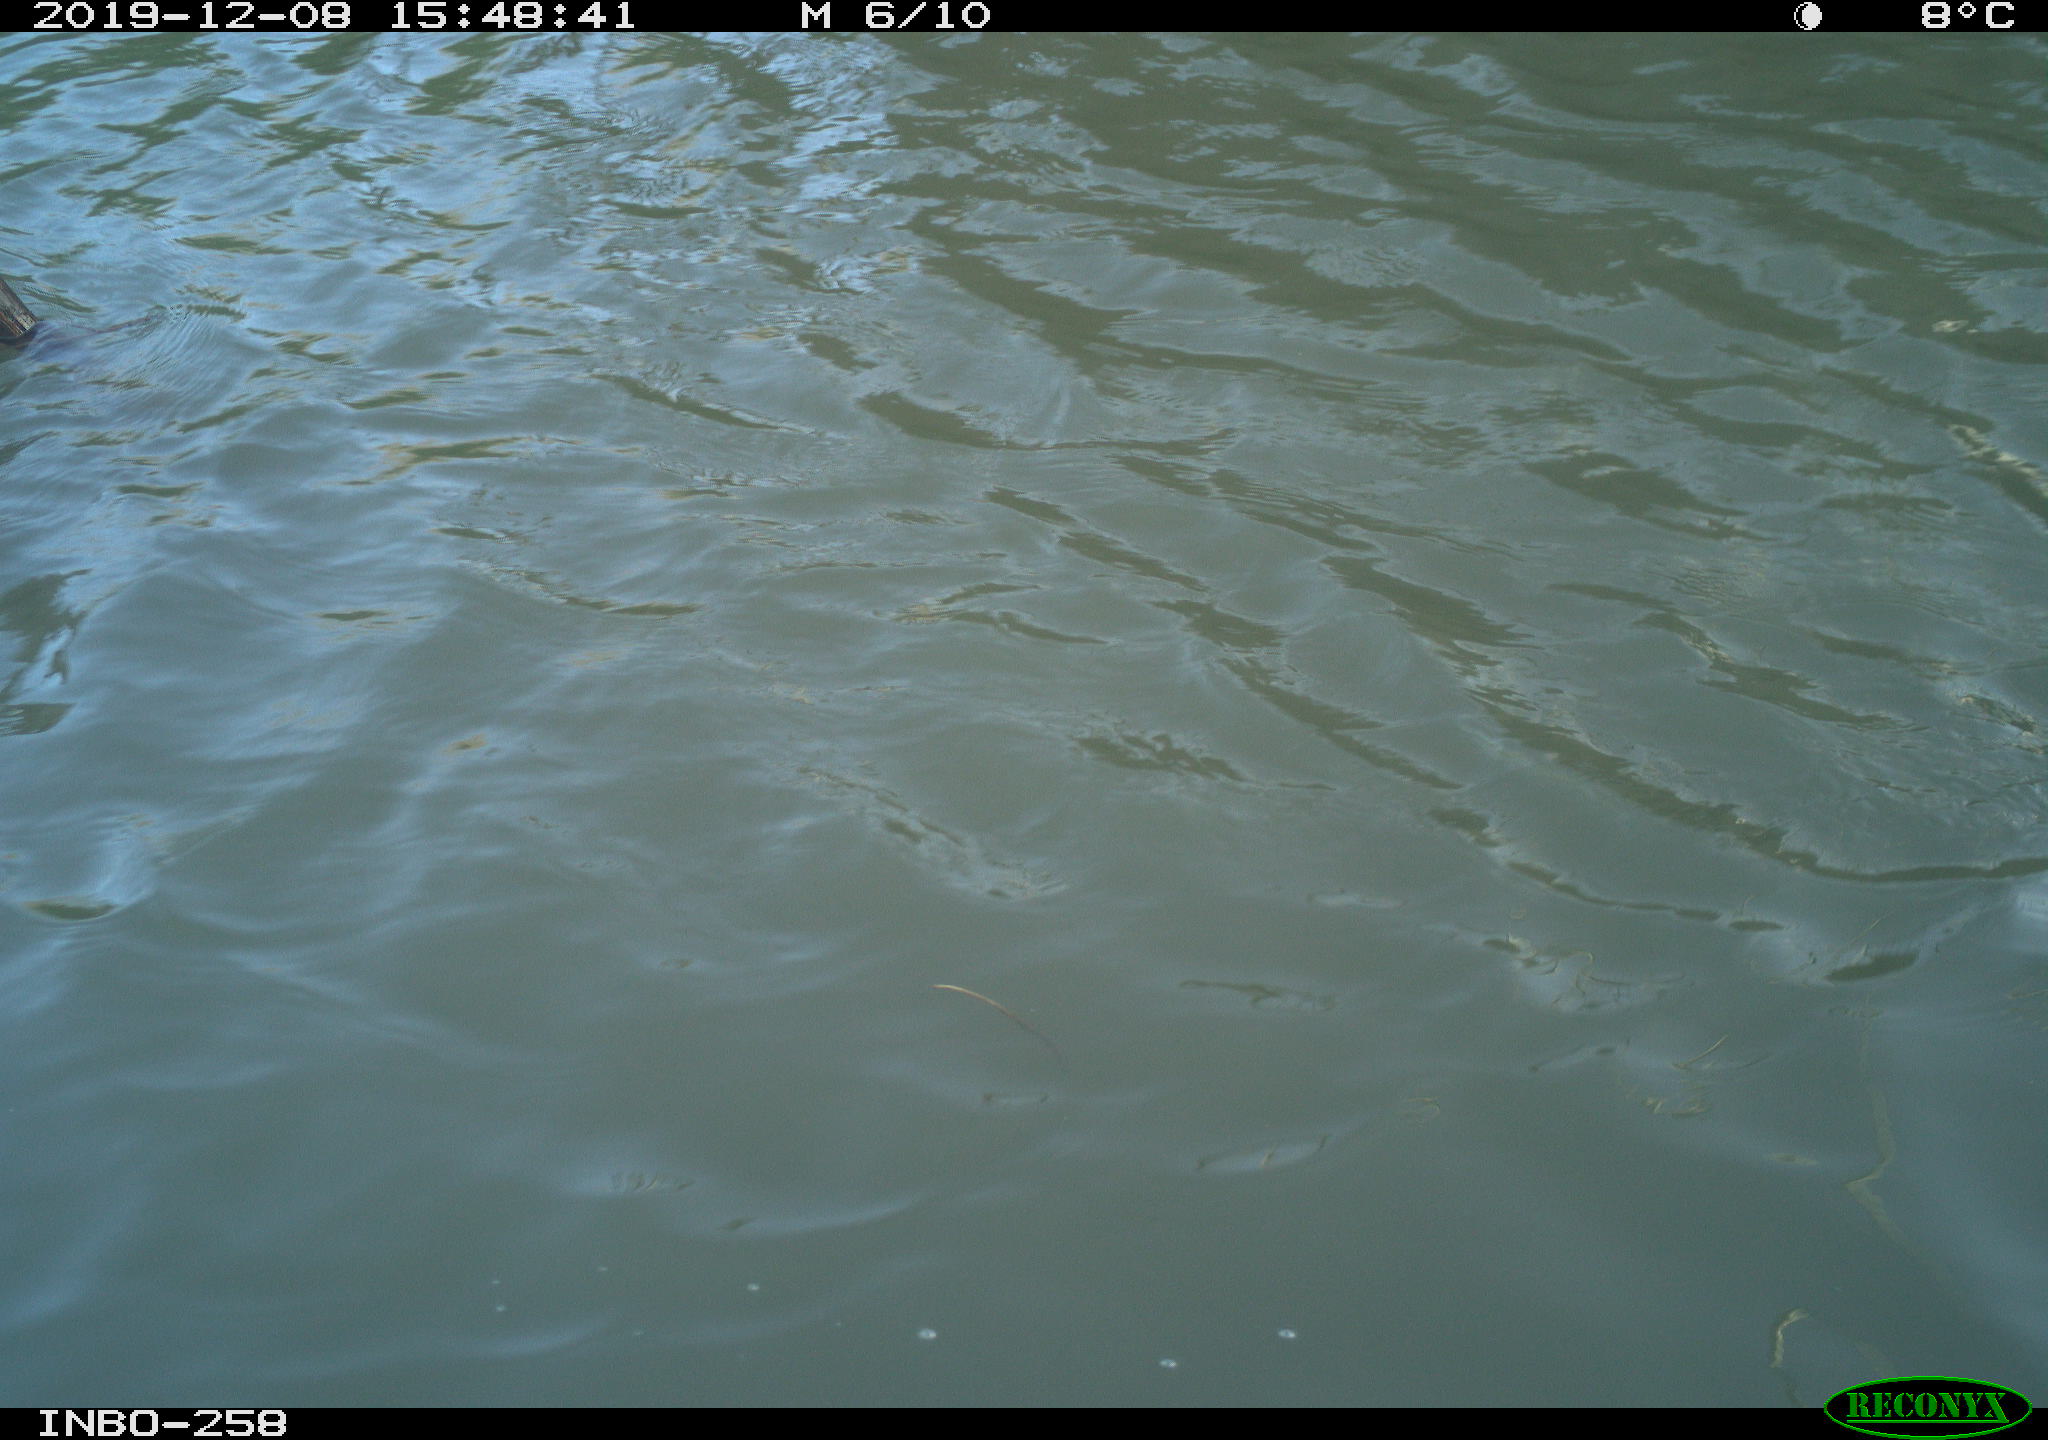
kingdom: Animalia
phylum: Chordata
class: Aves
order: Gruiformes
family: Rallidae
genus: Gallinula
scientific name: Gallinula chloropus
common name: Common moorhen
